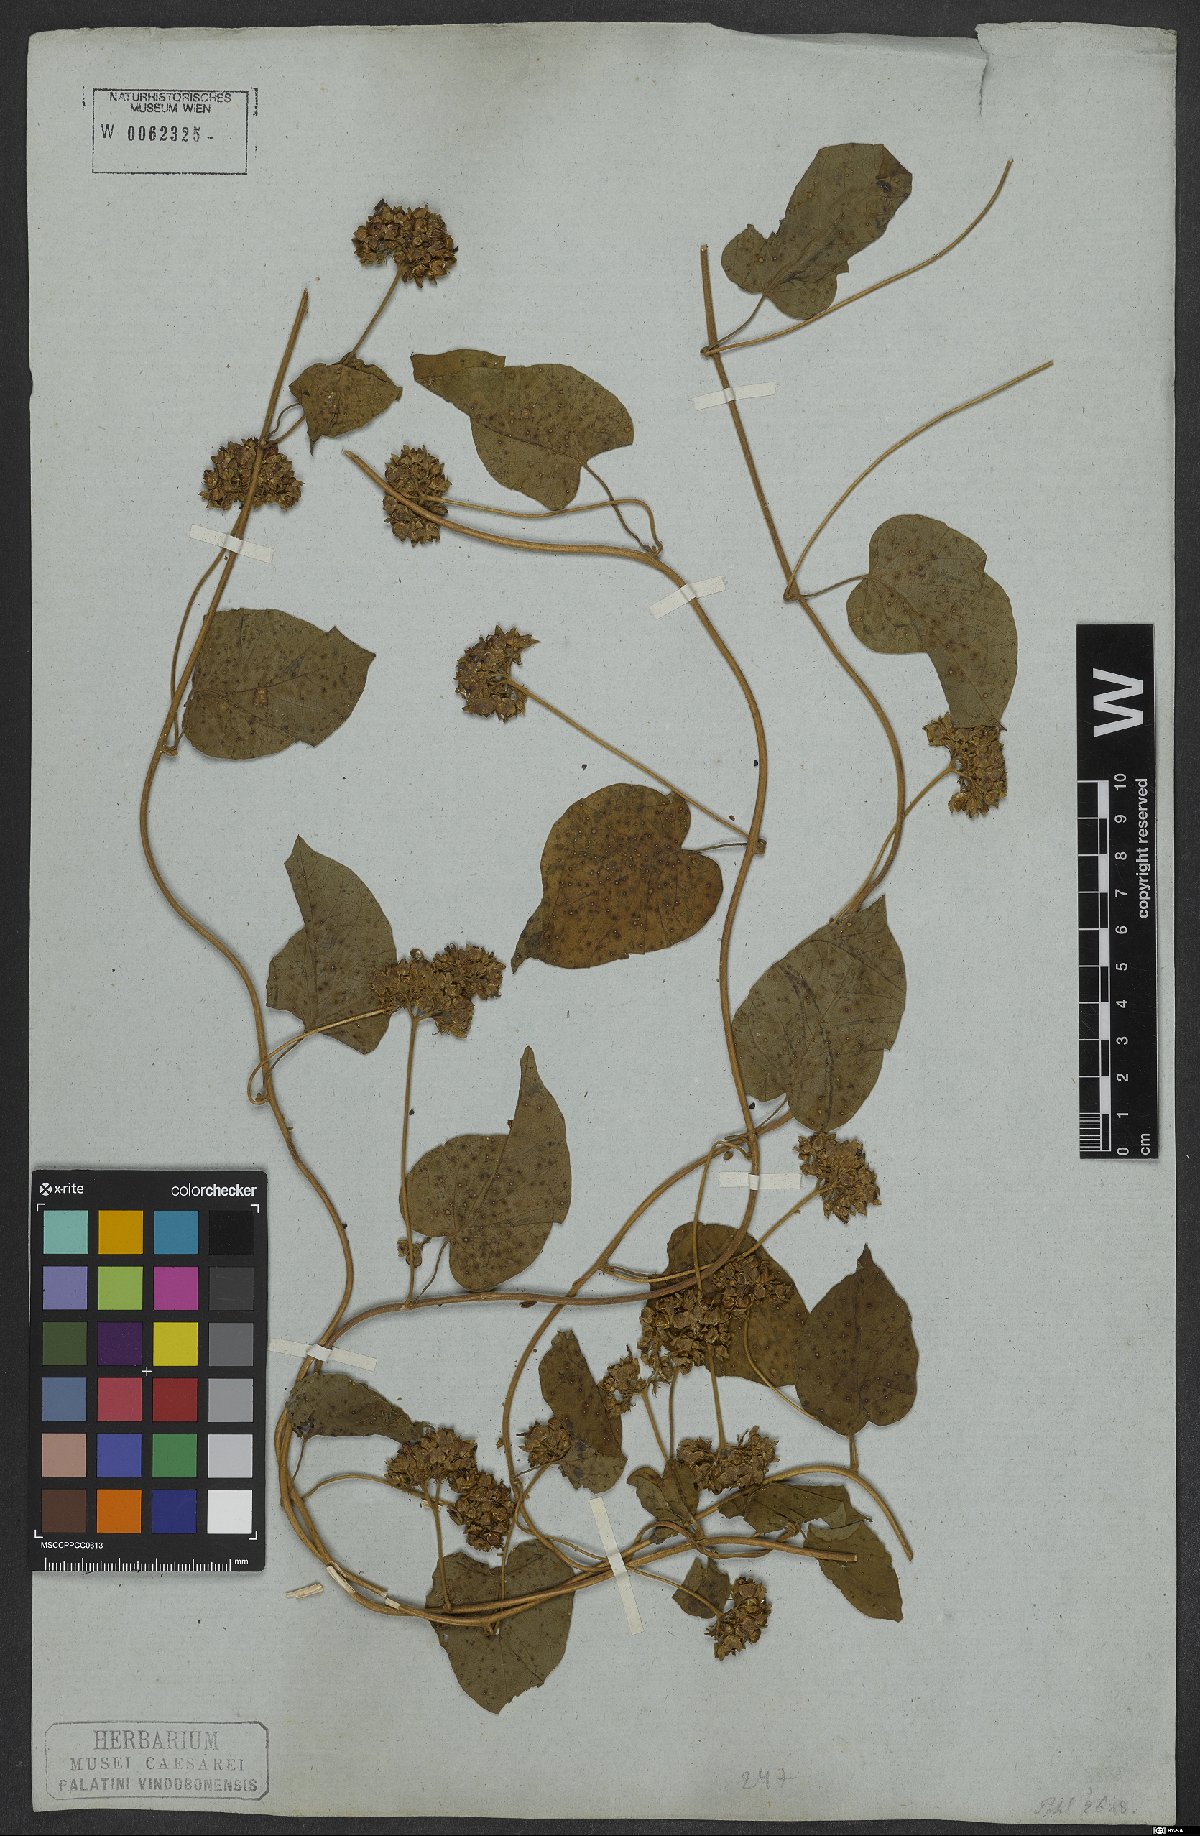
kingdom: Plantae
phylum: Tracheophyta
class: Magnoliopsida
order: Solanales
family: Convolvulaceae
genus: Jacquemontia
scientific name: Jacquemontia densiflora
